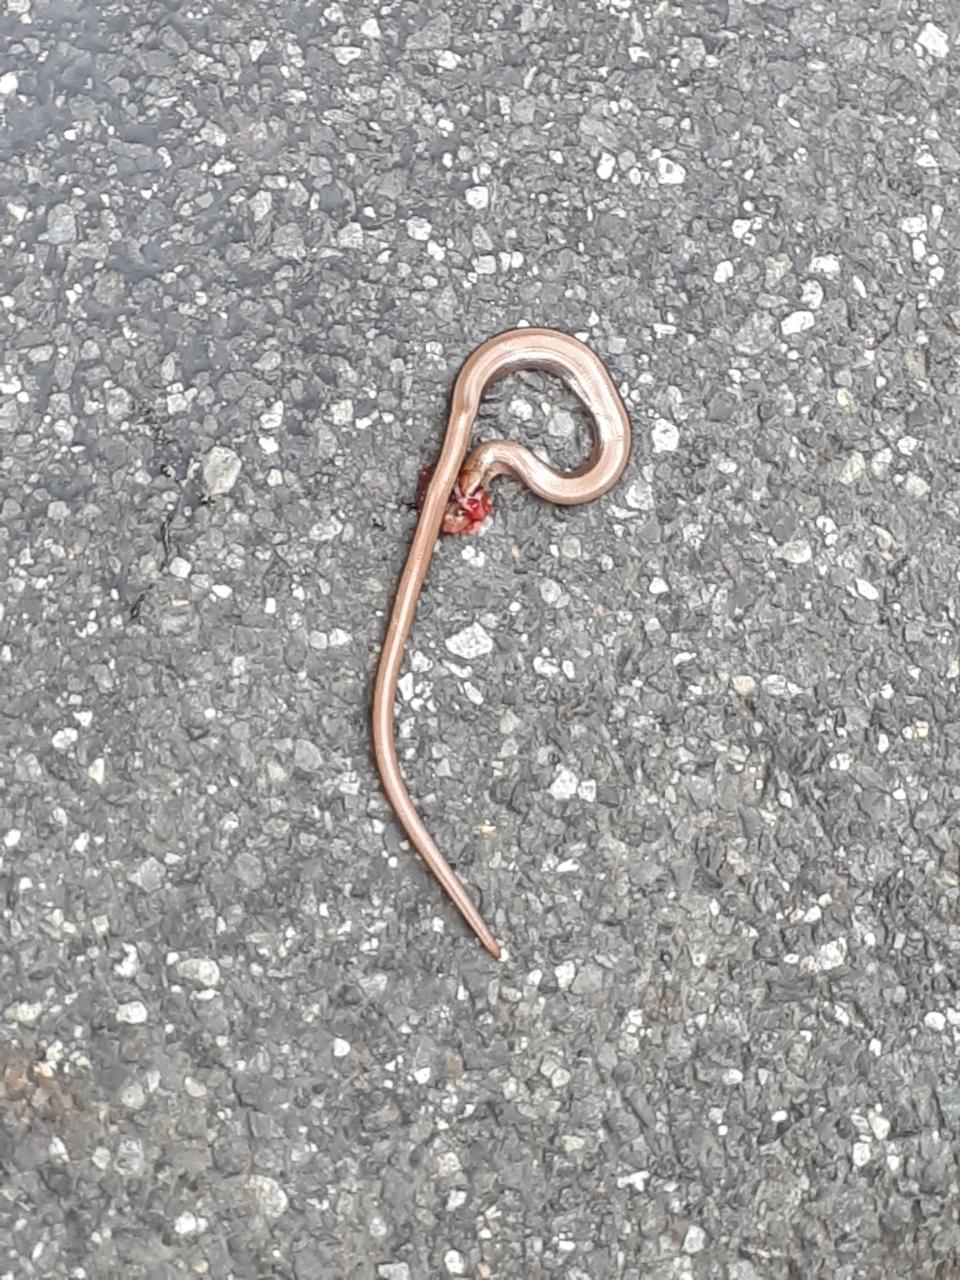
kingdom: Animalia
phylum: Chordata
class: Squamata
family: Anguidae
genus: Anguis
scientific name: Anguis fragilis
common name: Slow worm
